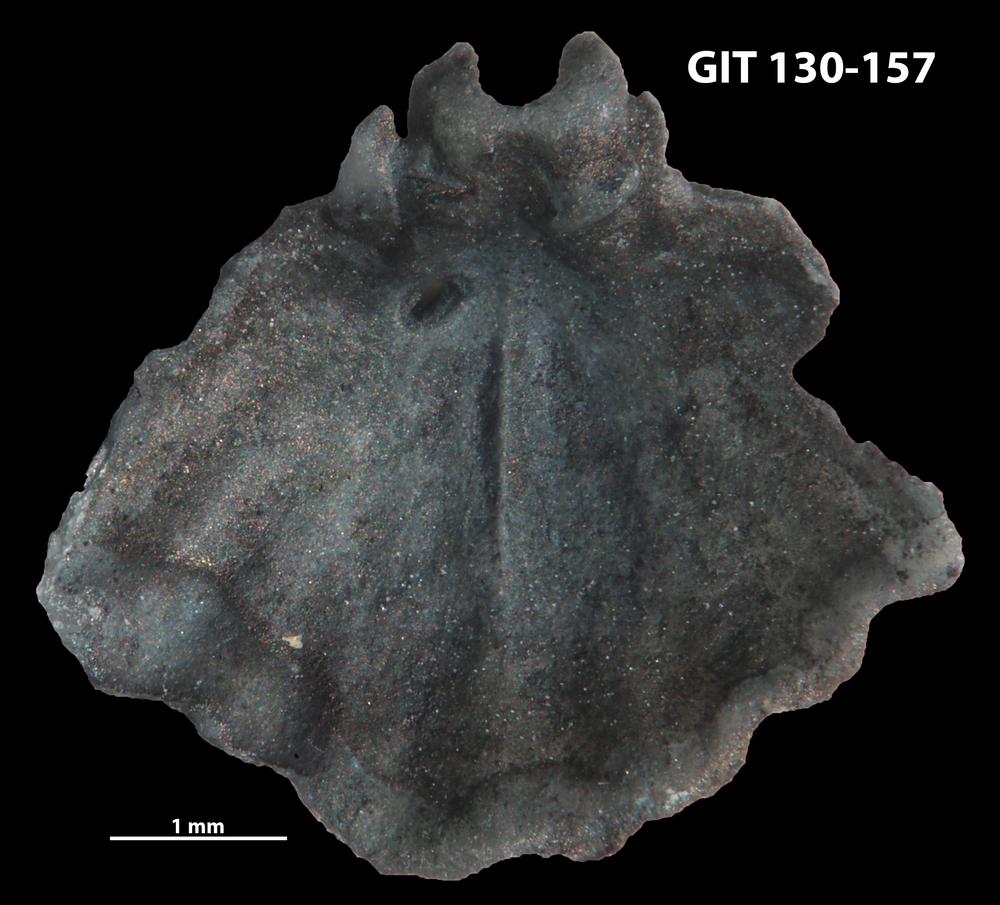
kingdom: Animalia
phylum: Brachiopoda
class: Rhynchonellata
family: Rhynchospirinidae
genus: Homoeospira
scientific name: Homoeospira Terebratula baylei
